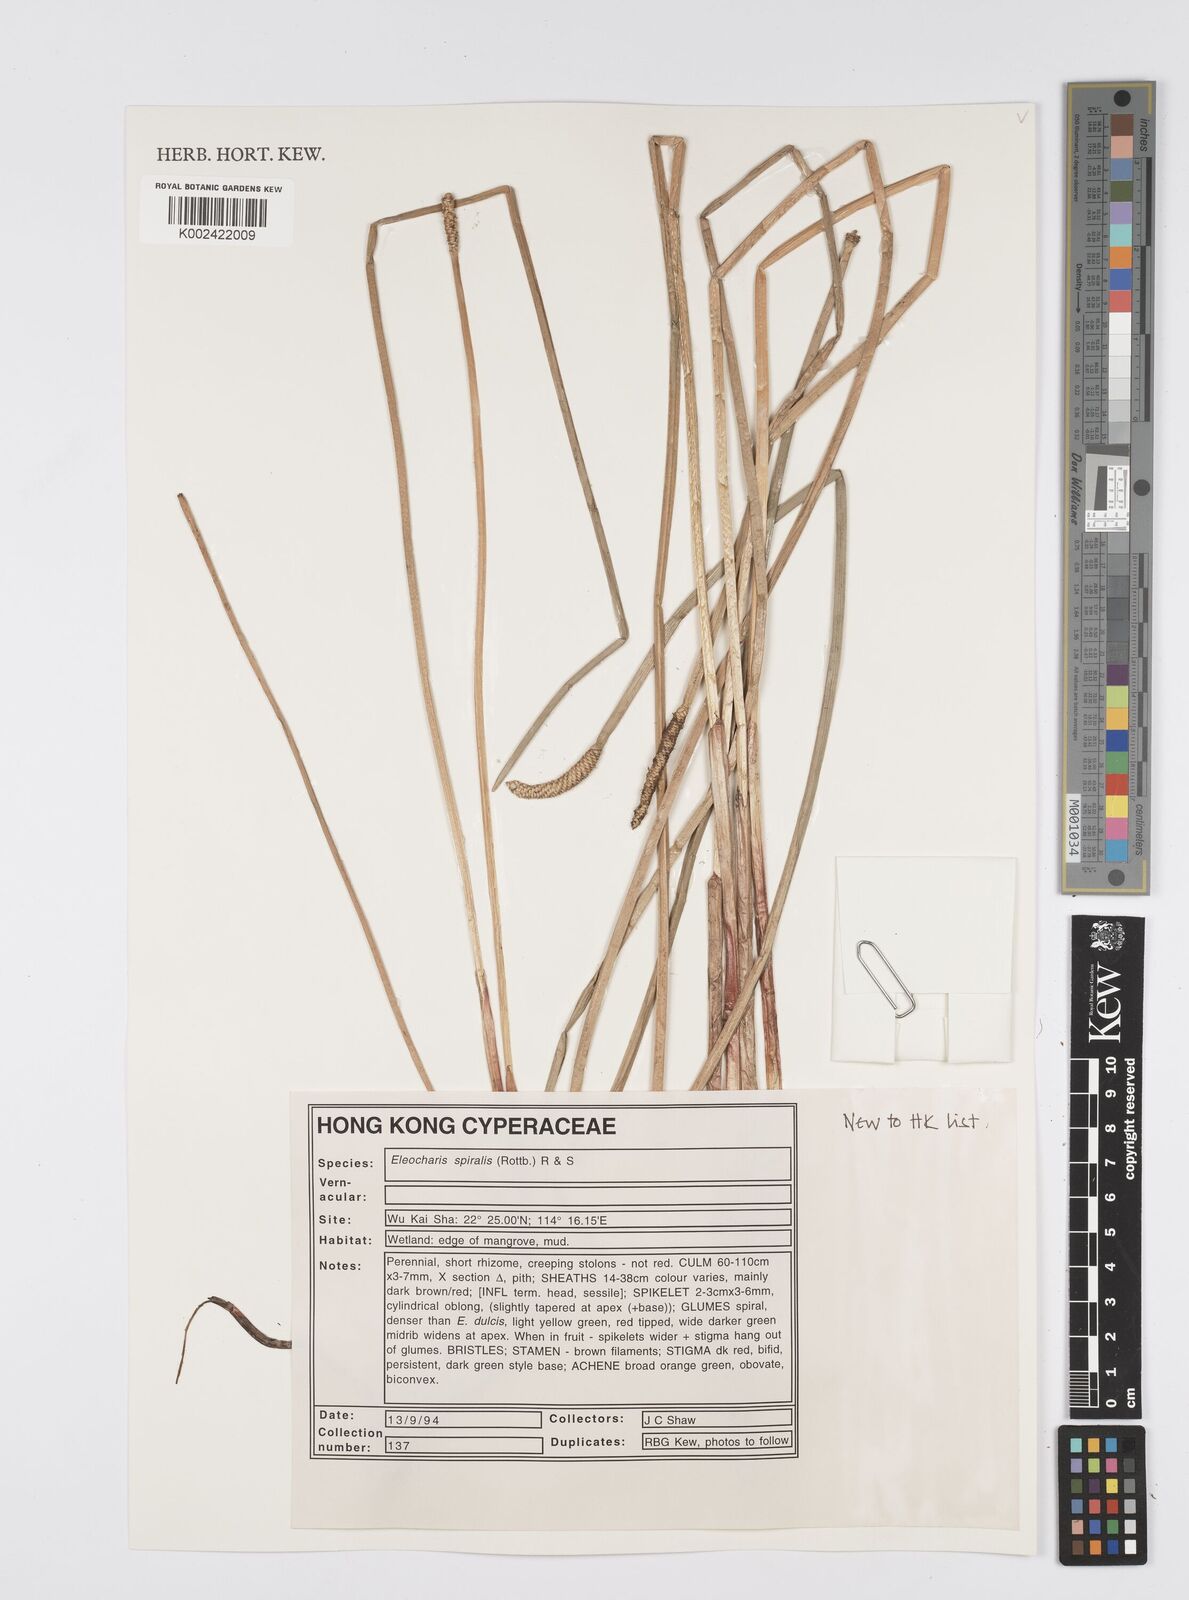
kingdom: Plantae
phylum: Tracheophyta
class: Liliopsida
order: Poales
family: Cyperaceae
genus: Eleocharis
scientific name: Eleocharis spiralis
